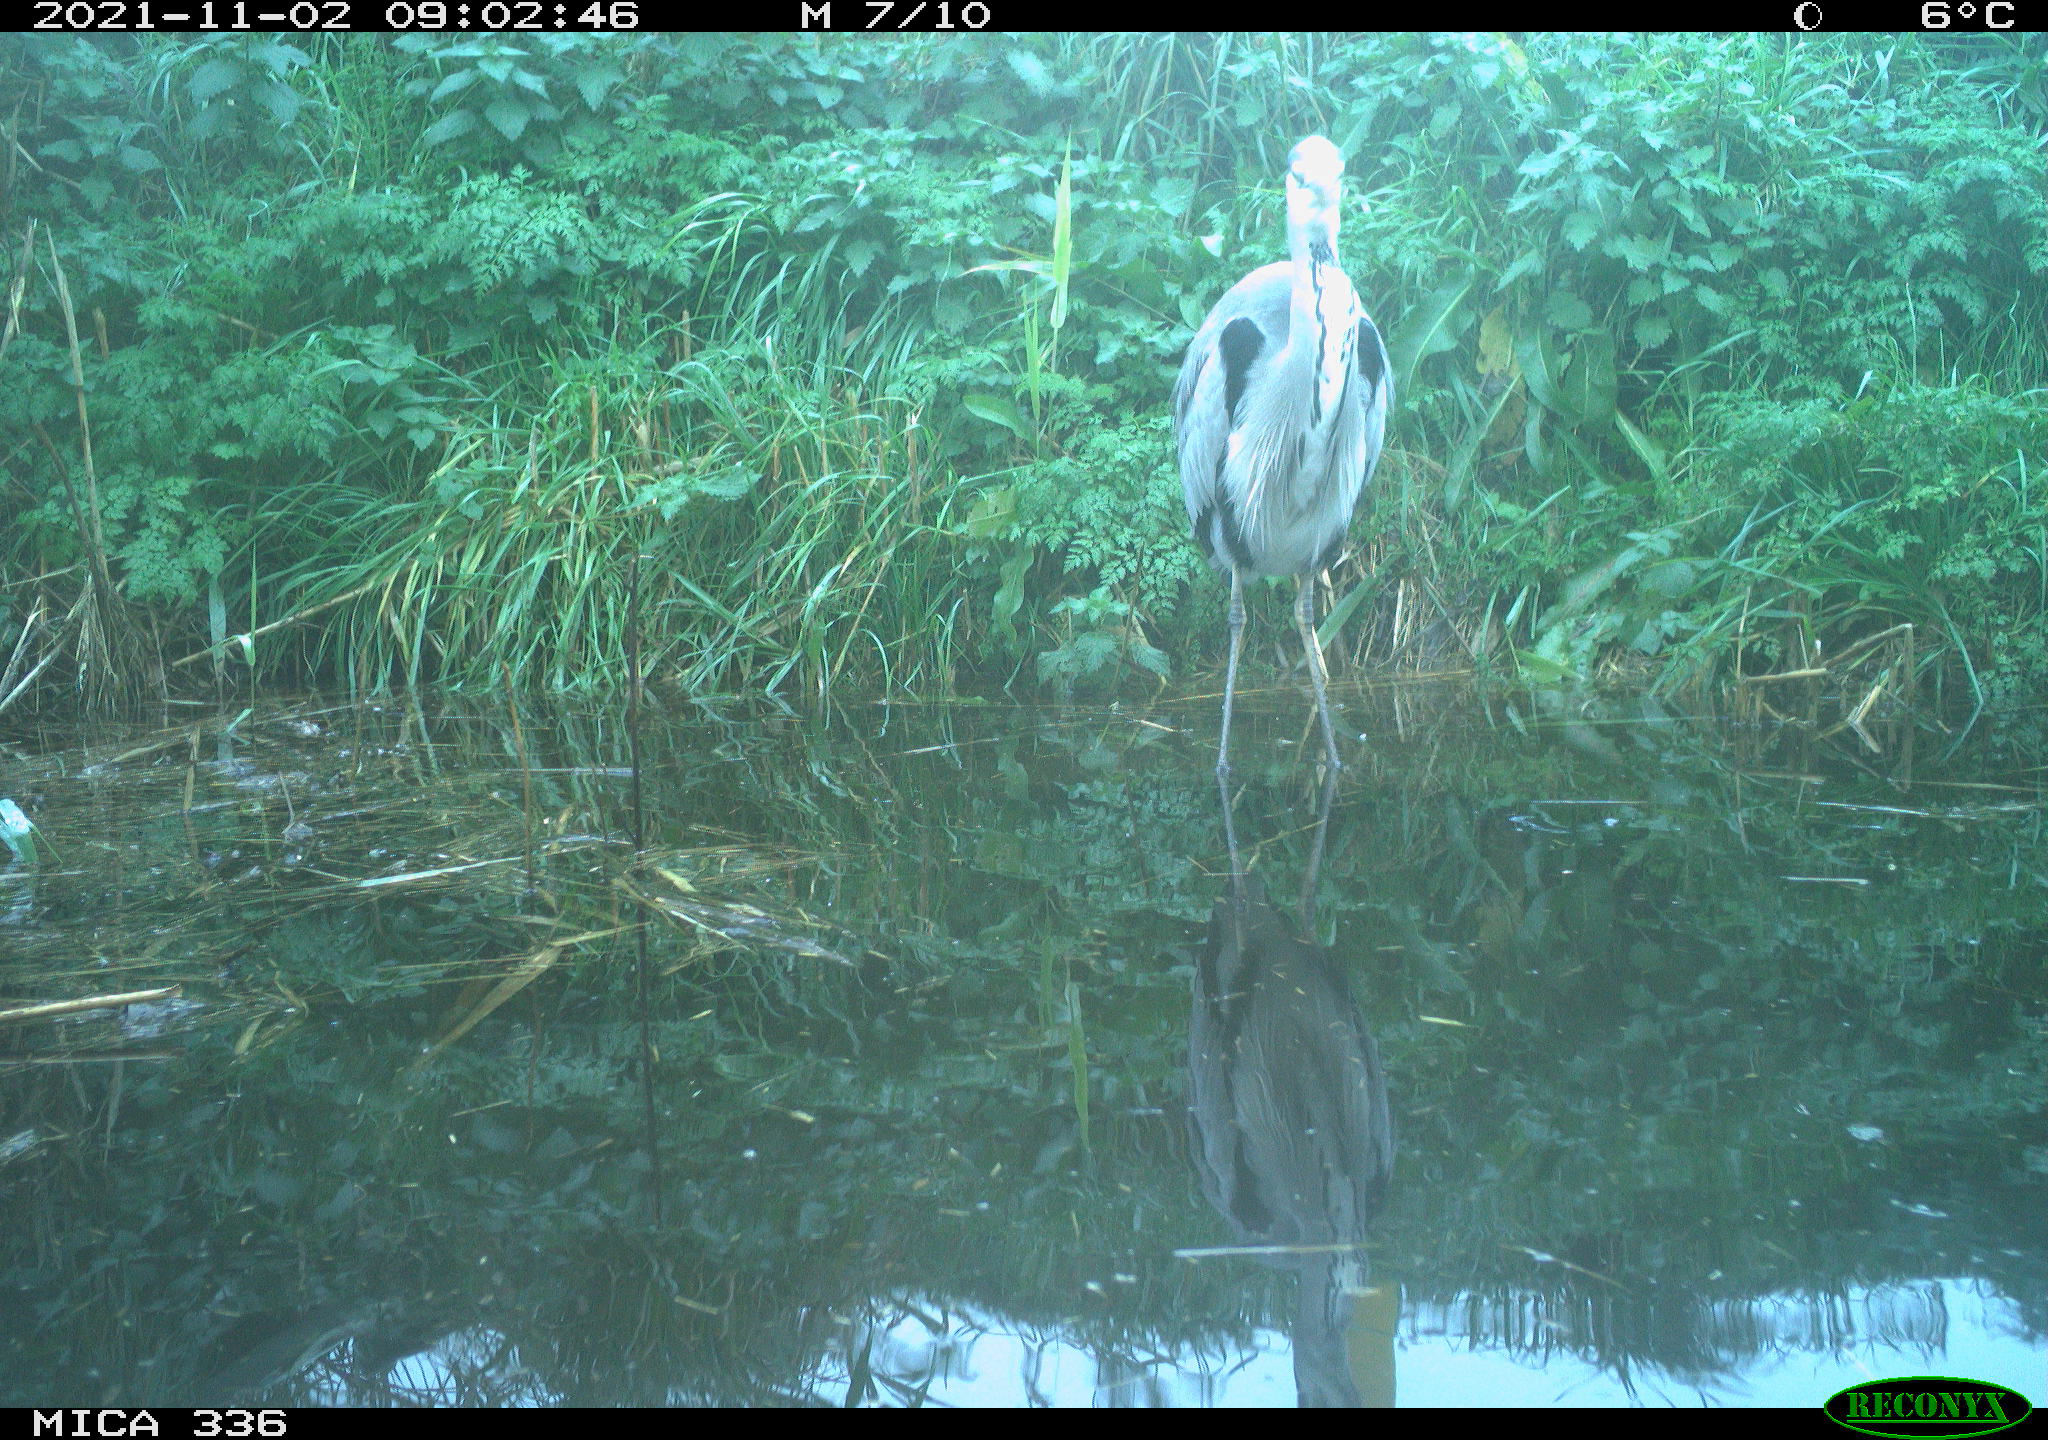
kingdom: Animalia
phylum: Chordata
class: Aves
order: Pelecaniformes
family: Ardeidae
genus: Ardea
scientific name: Ardea cinerea
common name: Grey heron
